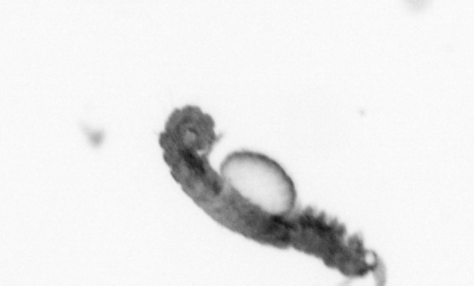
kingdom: Animalia
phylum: Annelida
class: Polychaeta
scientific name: Polychaeta
